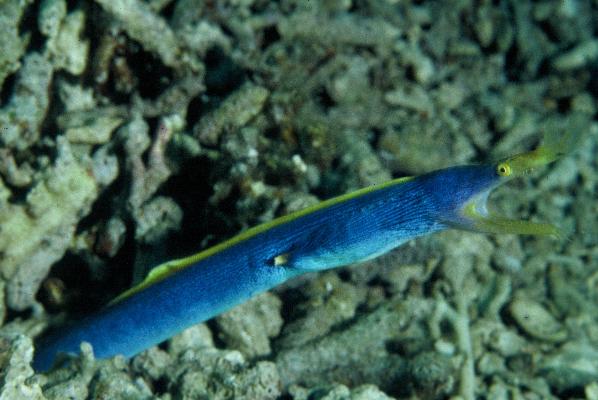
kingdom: Animalia
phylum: Chordata
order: Anguilliformes
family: Muraenidae
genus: Rhinomuraena
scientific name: Rhinomuraena quaesita
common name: Ribbon eel
